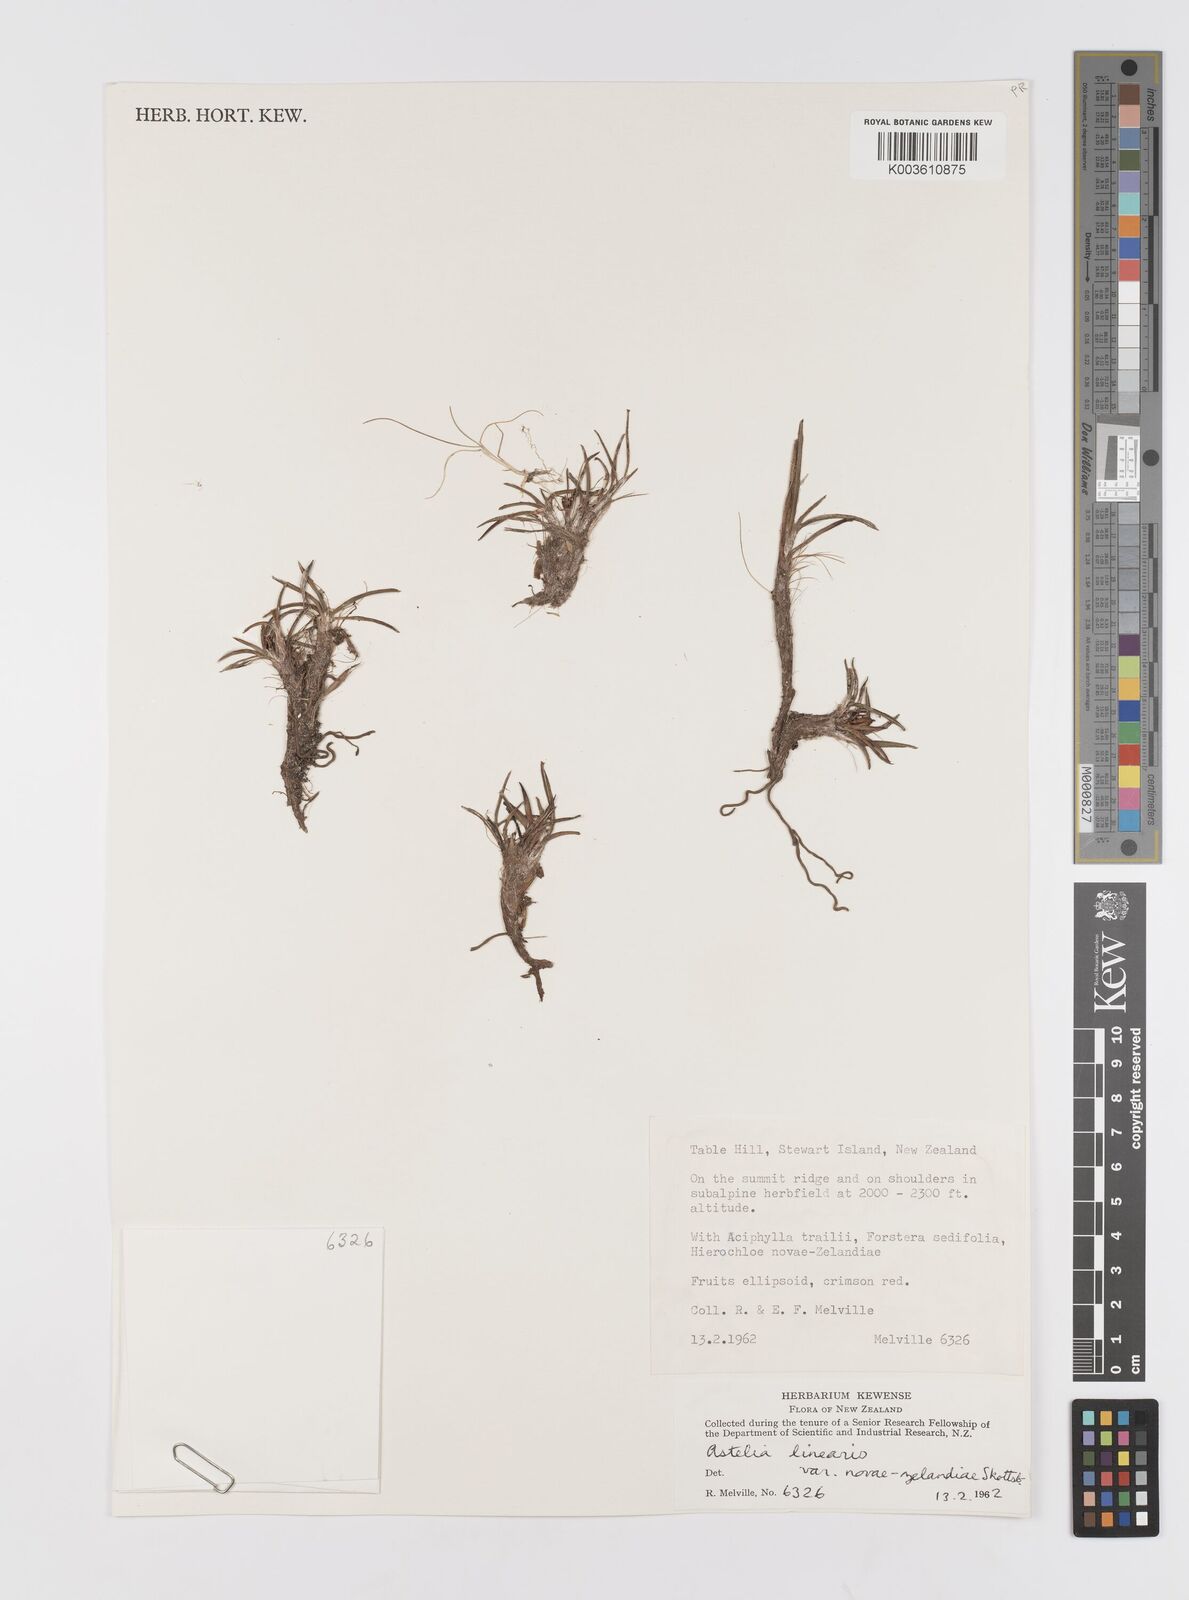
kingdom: Plantae
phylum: Tracheophyta
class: Liliopsida
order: Asparagales
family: Asteliaceae
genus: Astelia
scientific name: Astelia linearis
